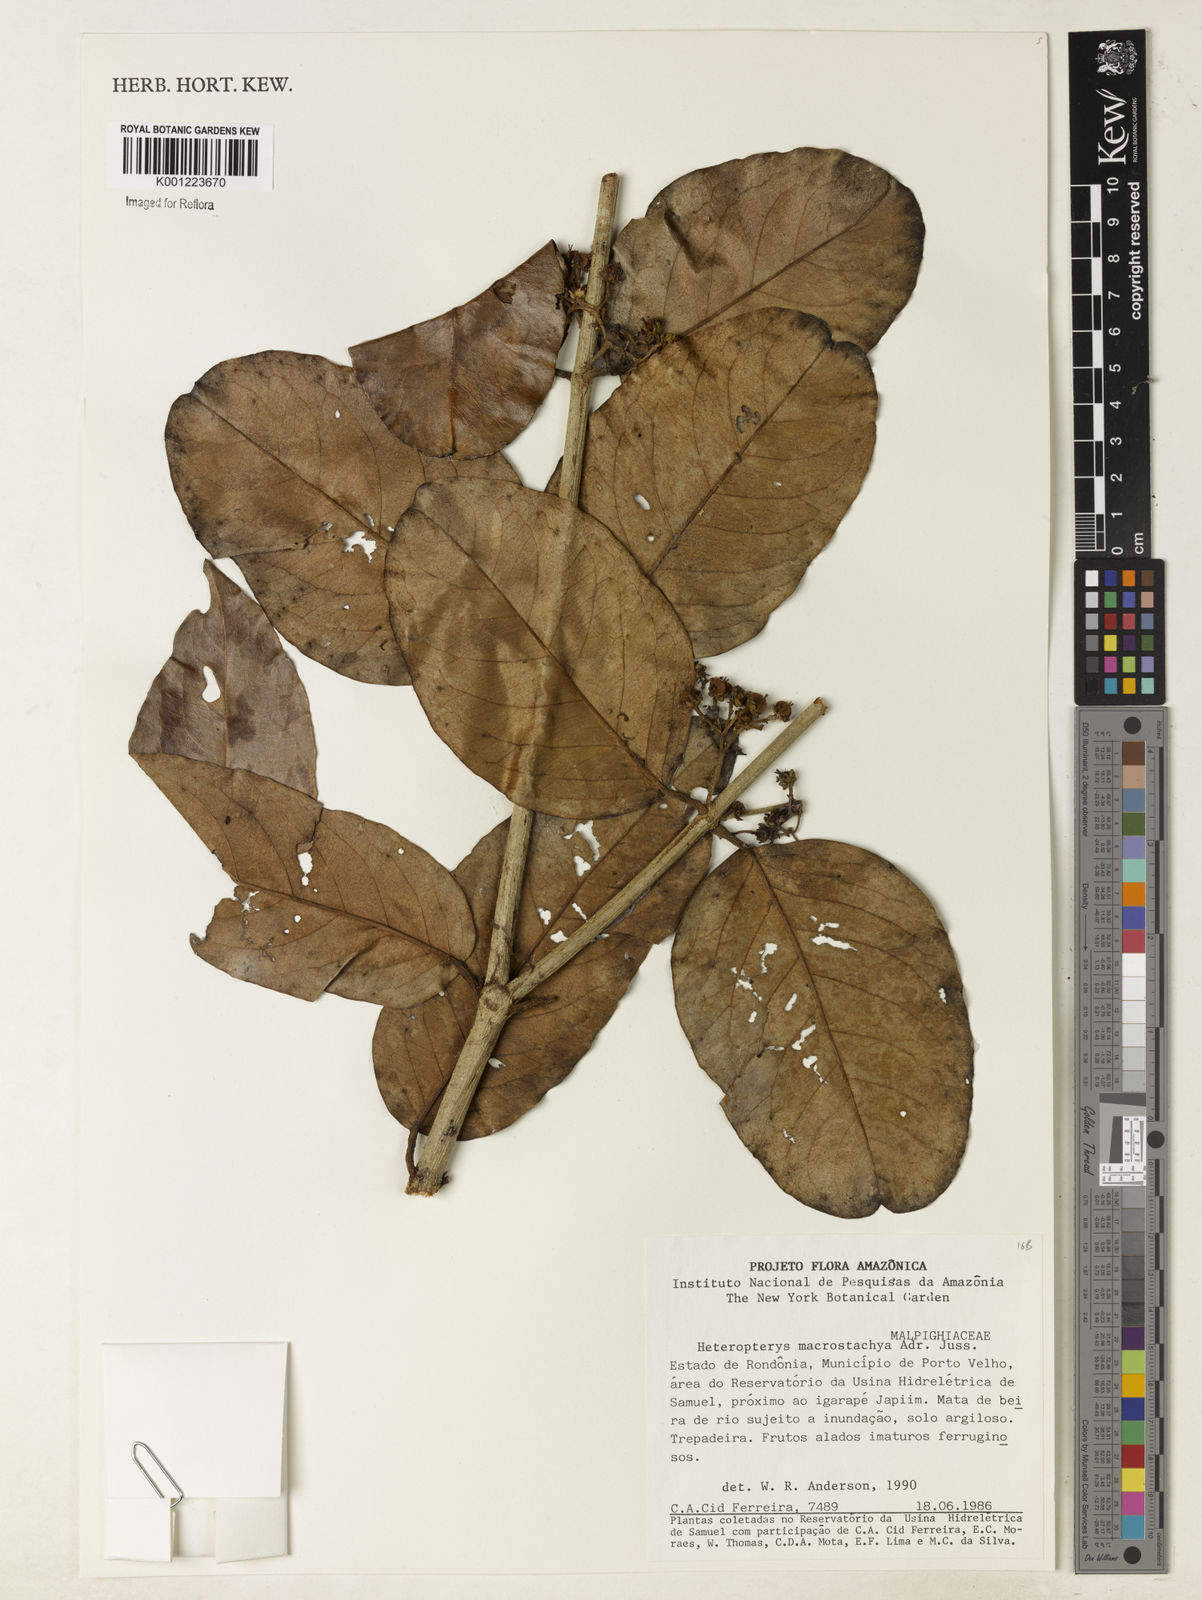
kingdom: Plantae
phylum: Tracheophyta
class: Magnoliopsida
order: Malpighiales
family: Malpighiaceae
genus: Heteropterys
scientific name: Heteropterys macrostachya
